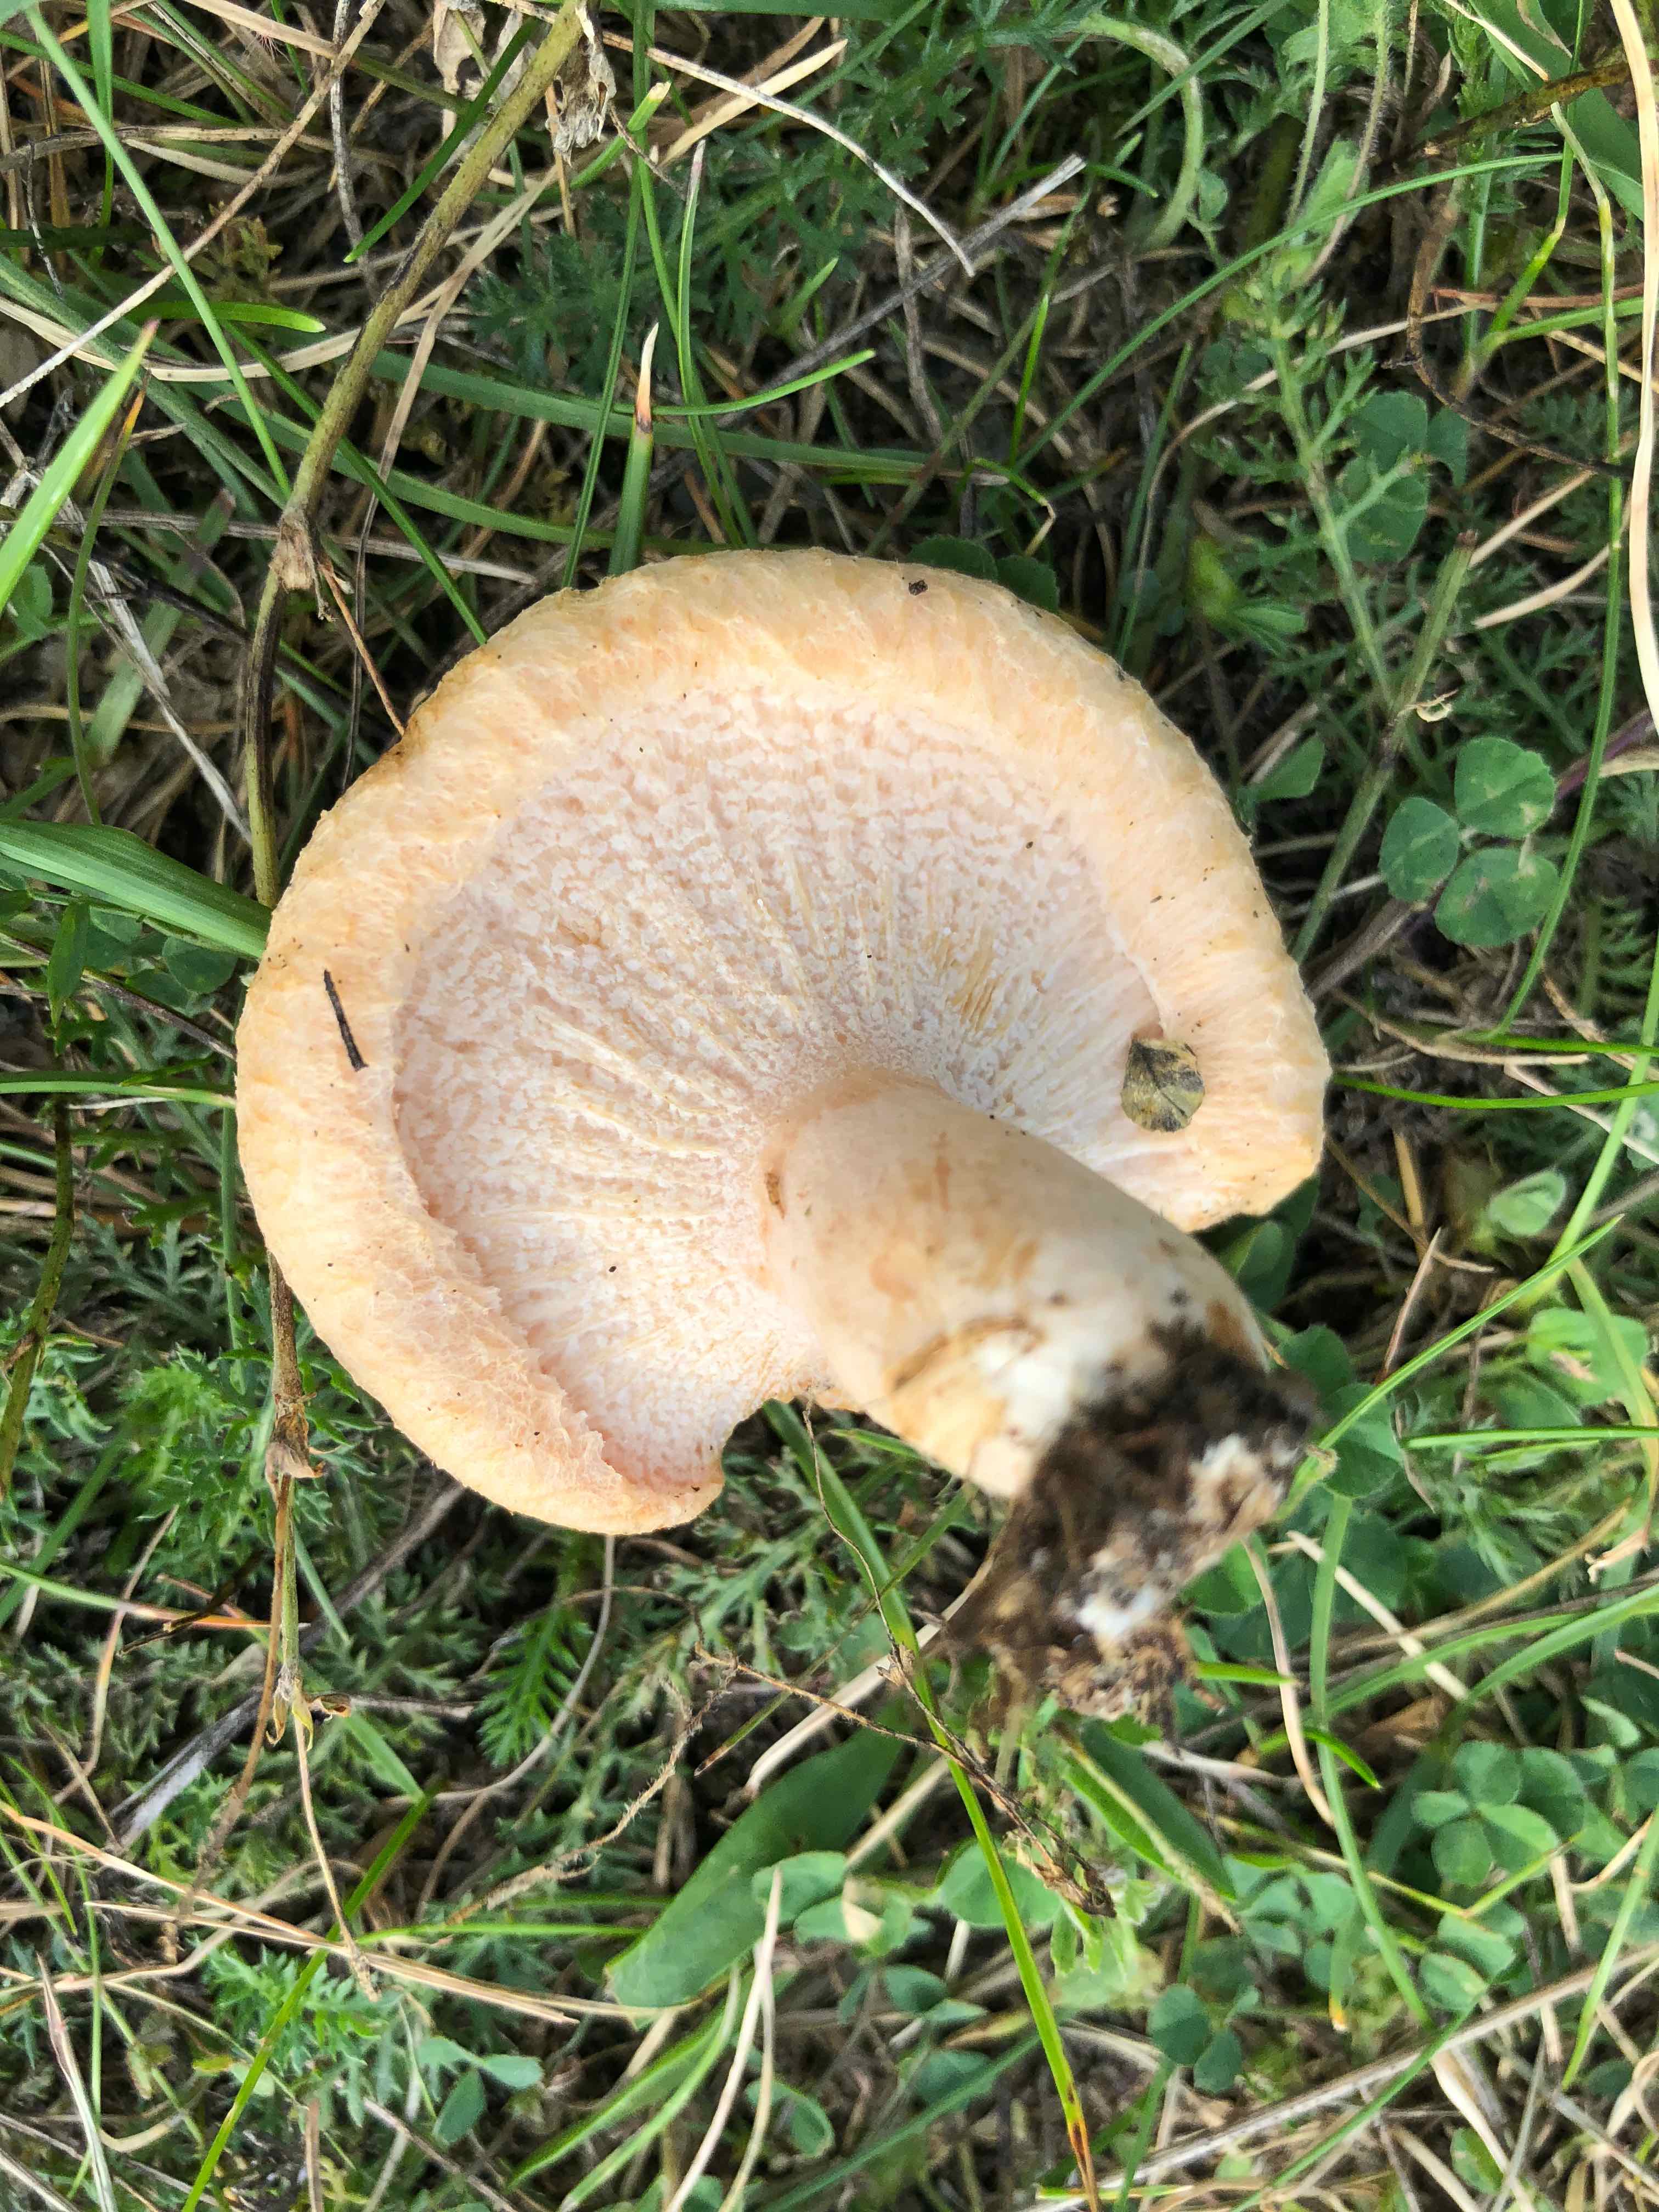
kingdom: Fungi
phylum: Basidiomycota
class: Agaricomycetes
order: Russulales
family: Russulaceae
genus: Lactarius
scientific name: Lactarius pubescens
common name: dunet mælkehat
